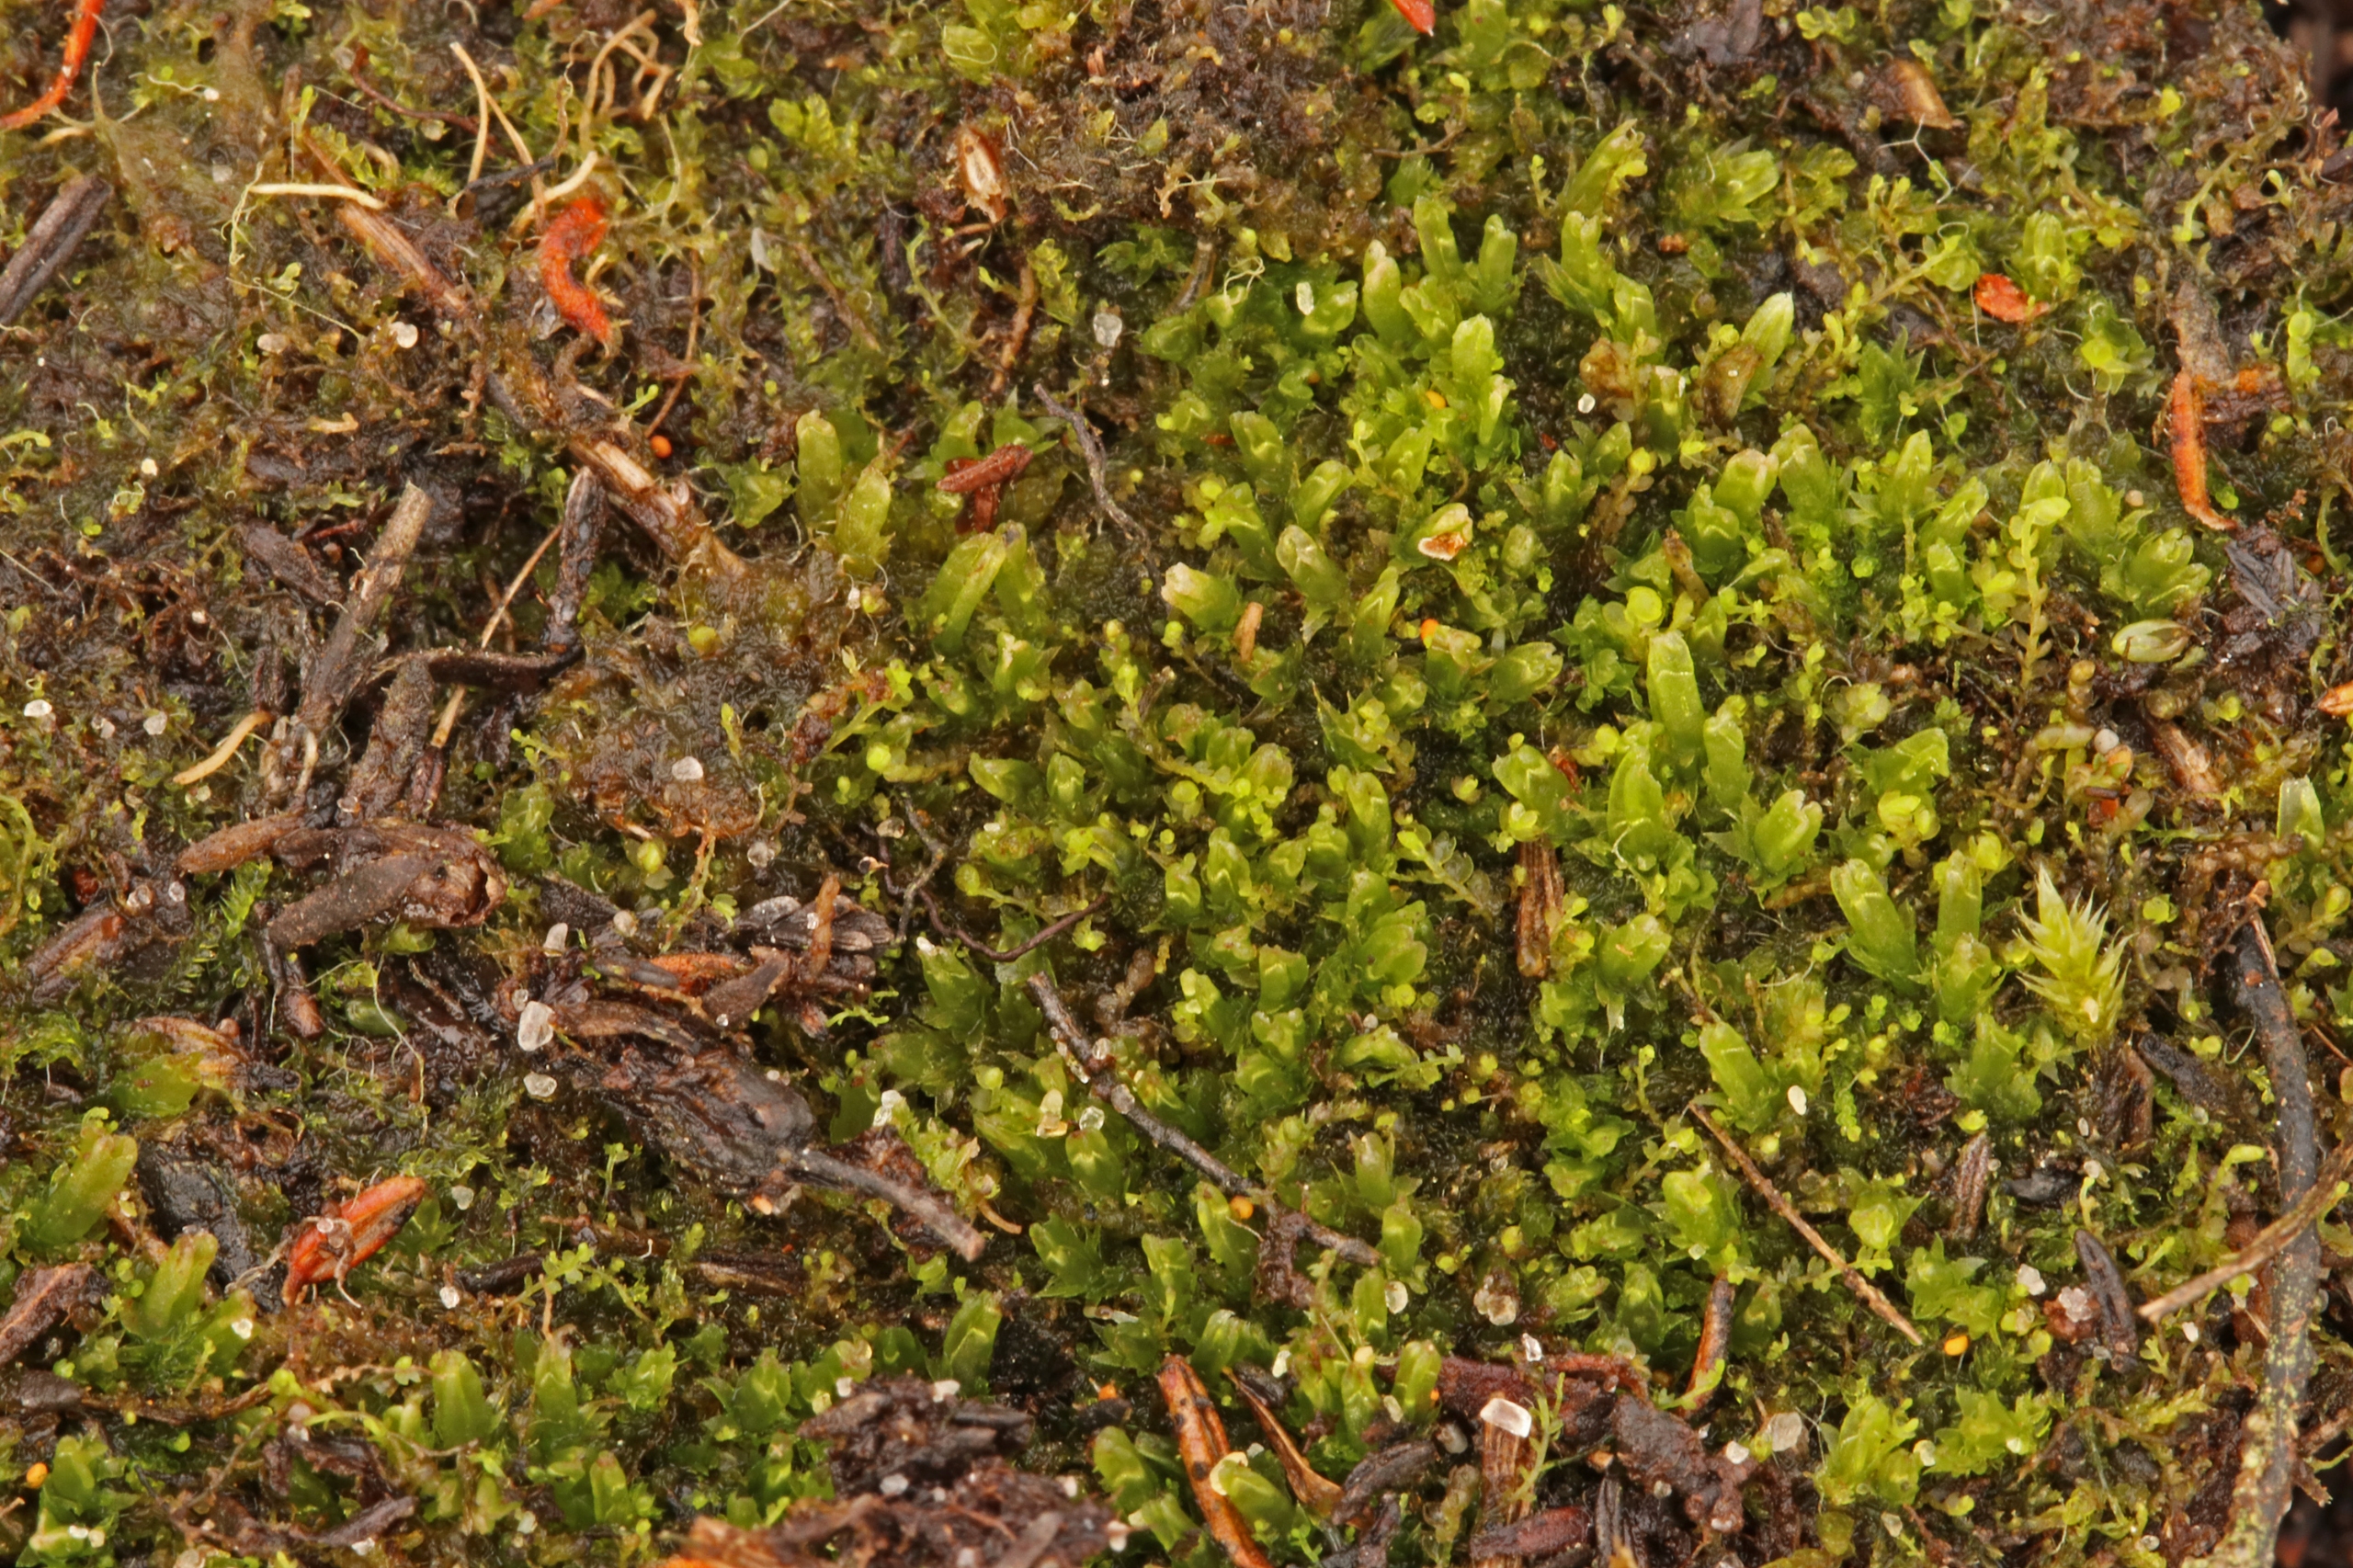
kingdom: Plantae
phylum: Marchantiophyta
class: Jungermanniopsida
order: Jungermanniales
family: Cephaloziaceae
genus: Cephalozia
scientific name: Cephalozia bicuspidata
